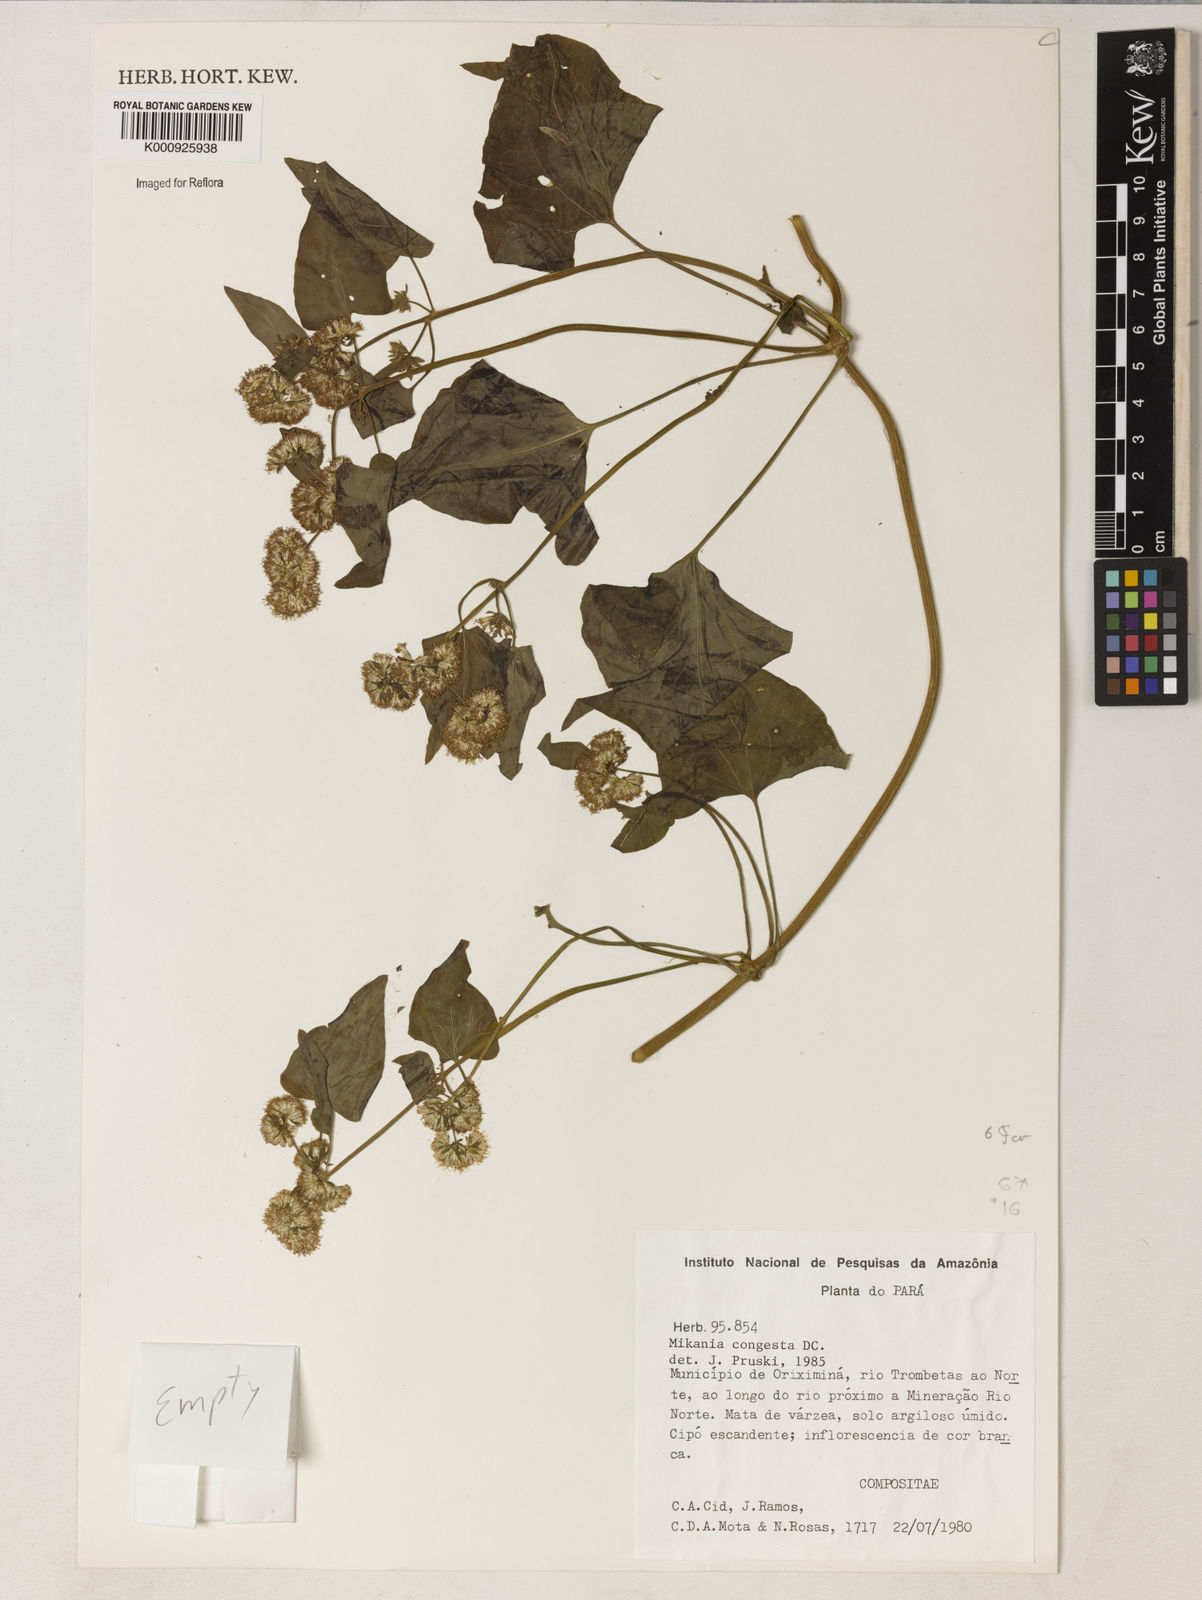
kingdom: Plantae
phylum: Tracheophyta
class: Magnoliopsida
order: Asterales
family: Asteraceae
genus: Mikania
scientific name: Mikania congesta
